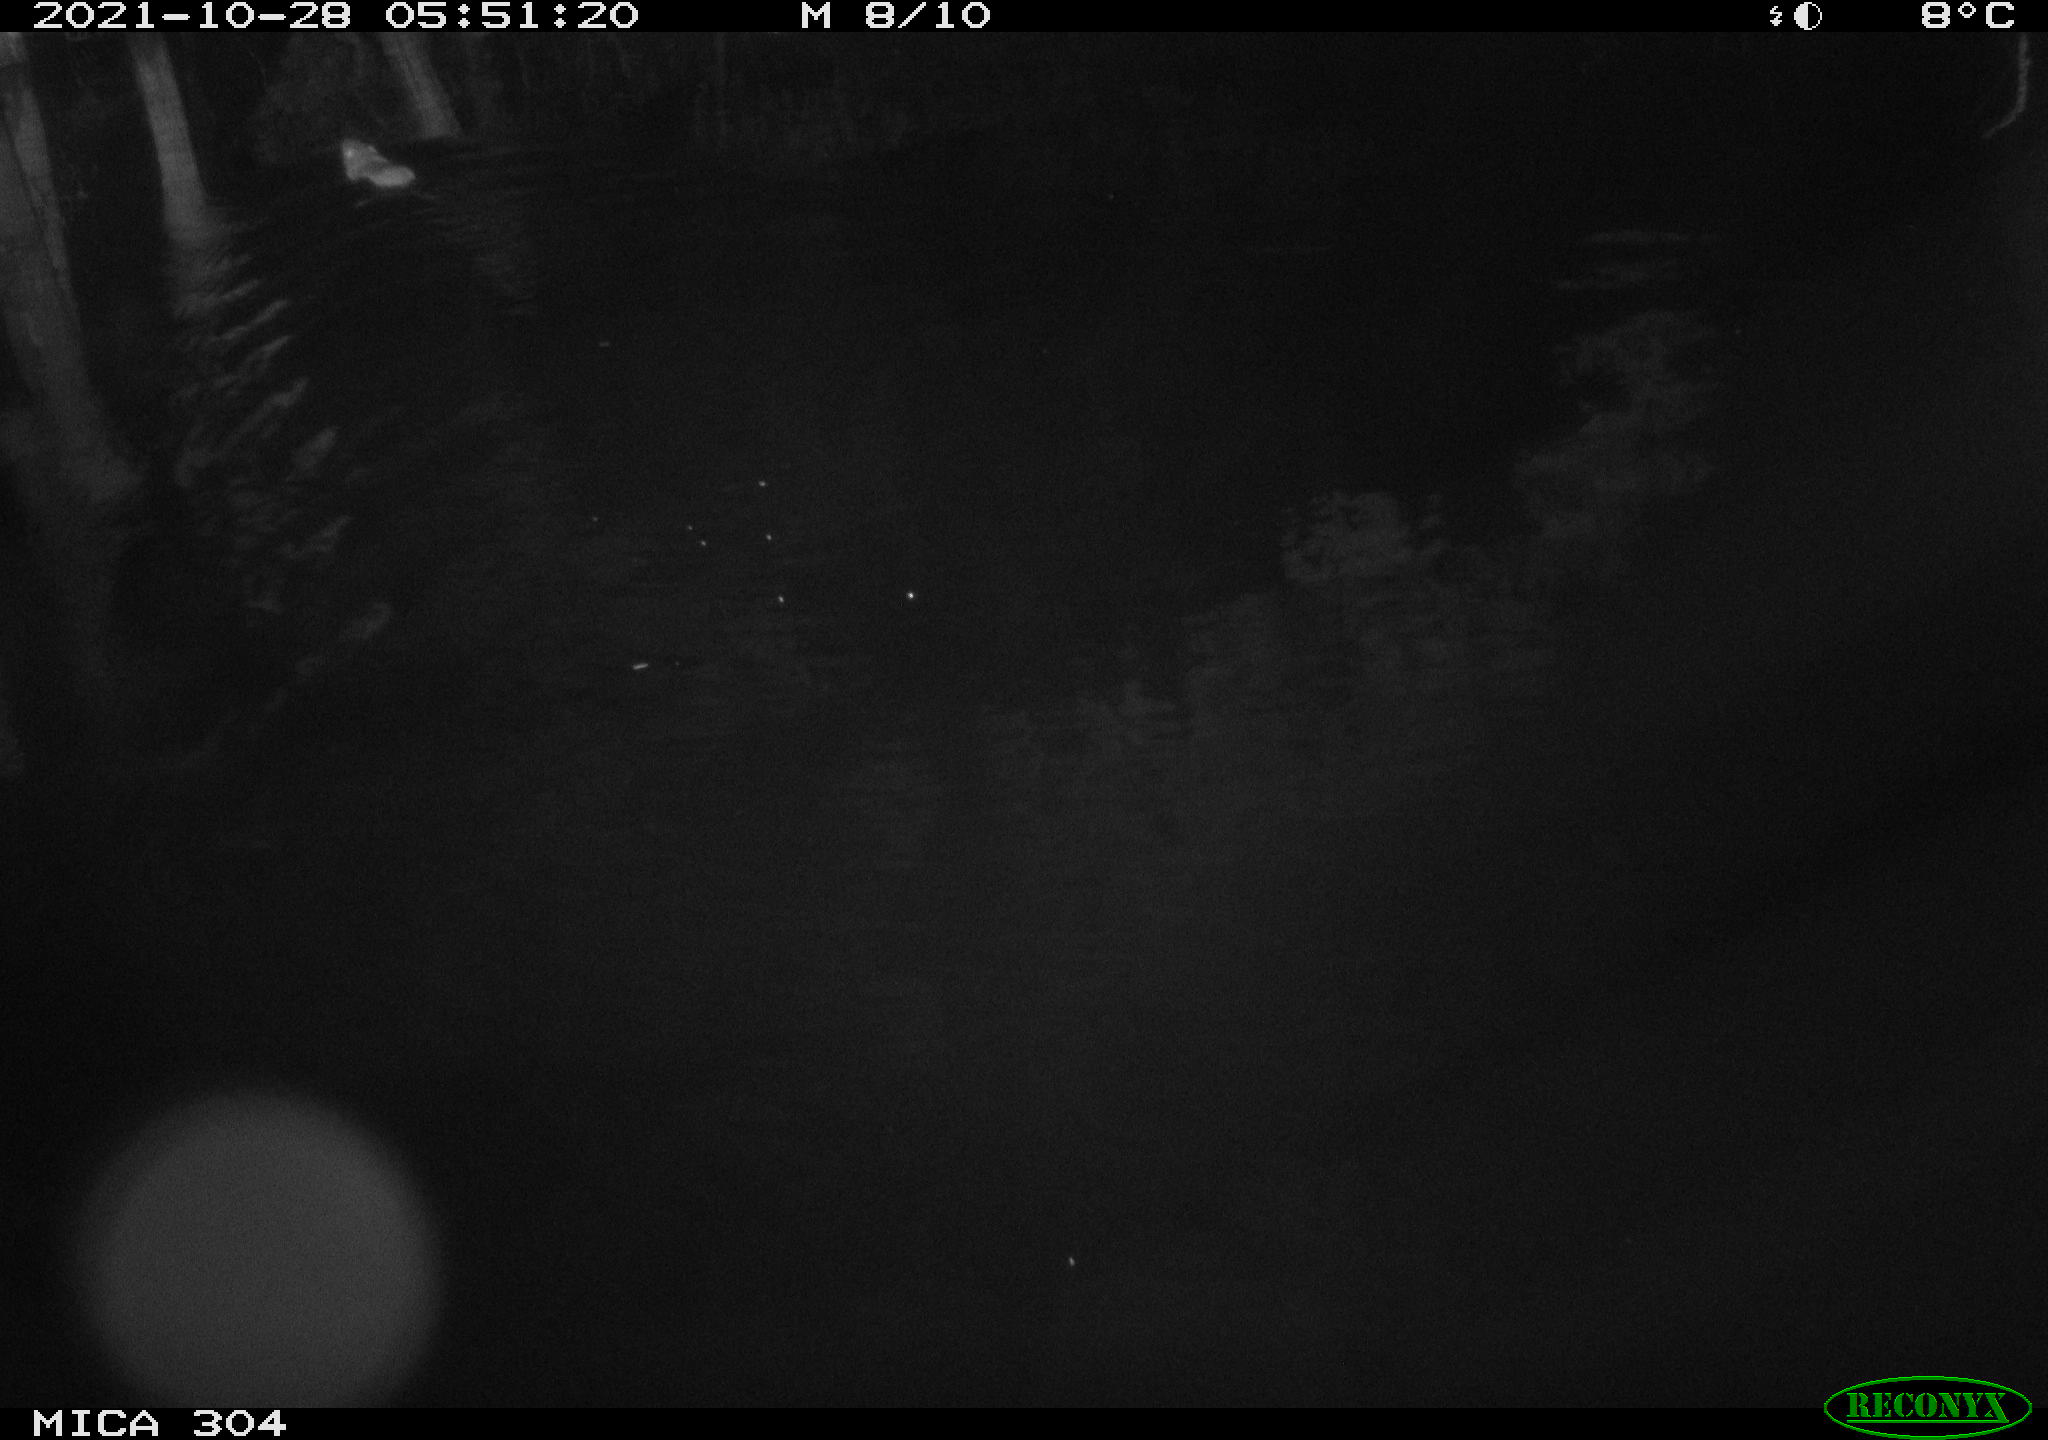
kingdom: Animalia
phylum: Chordata
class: Mammalia
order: Rodentia
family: Muridae
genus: Rattus
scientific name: Rattus norvegicus
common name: Brown rat
